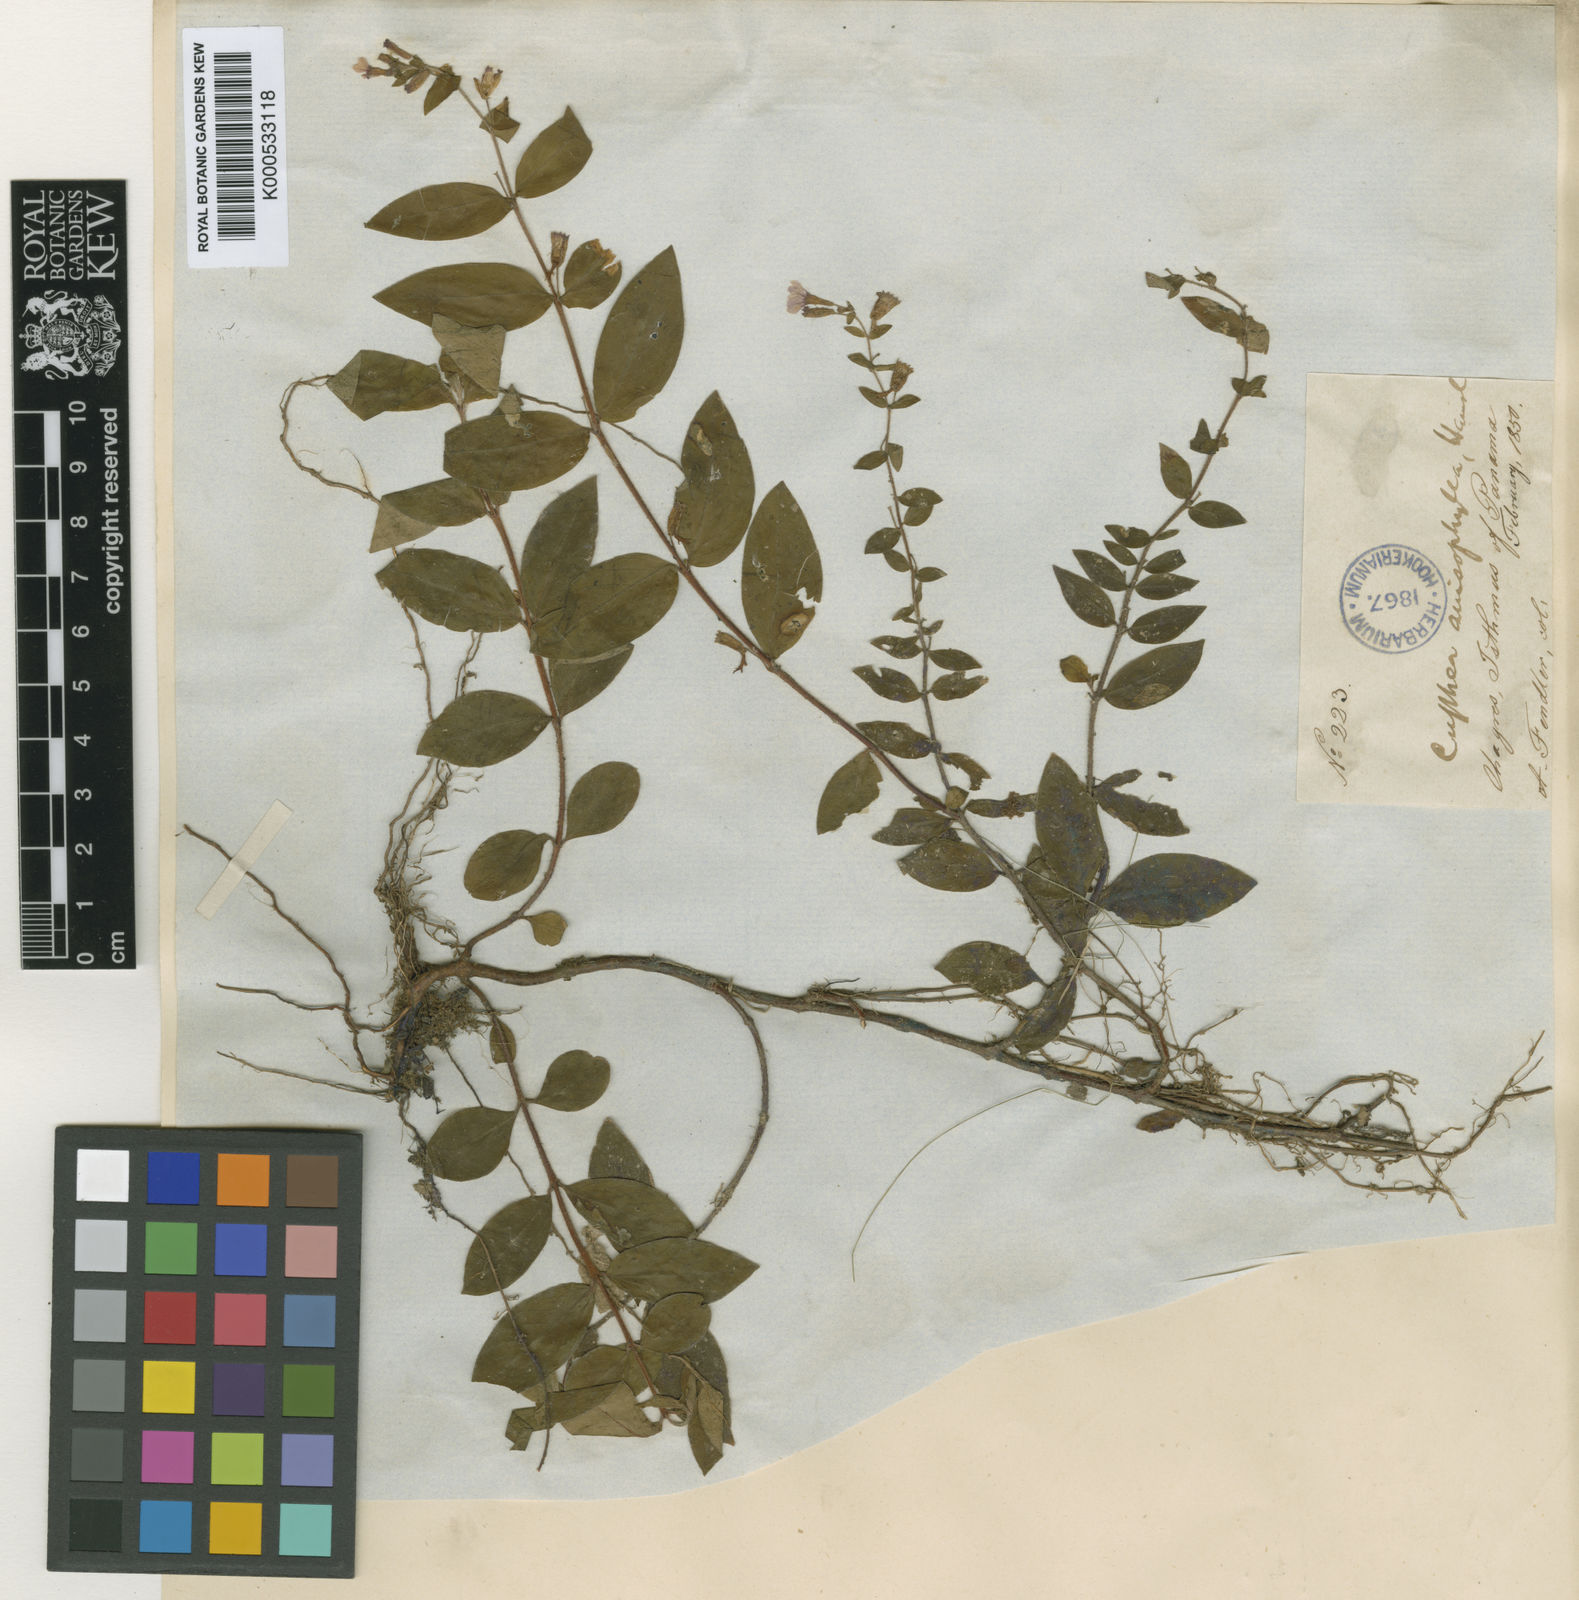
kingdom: Plantae
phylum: Tracheophyta
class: Magnoliopsida
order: Myrtales
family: Lythraceae
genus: Cuphea
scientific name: Cuphea calophylla
